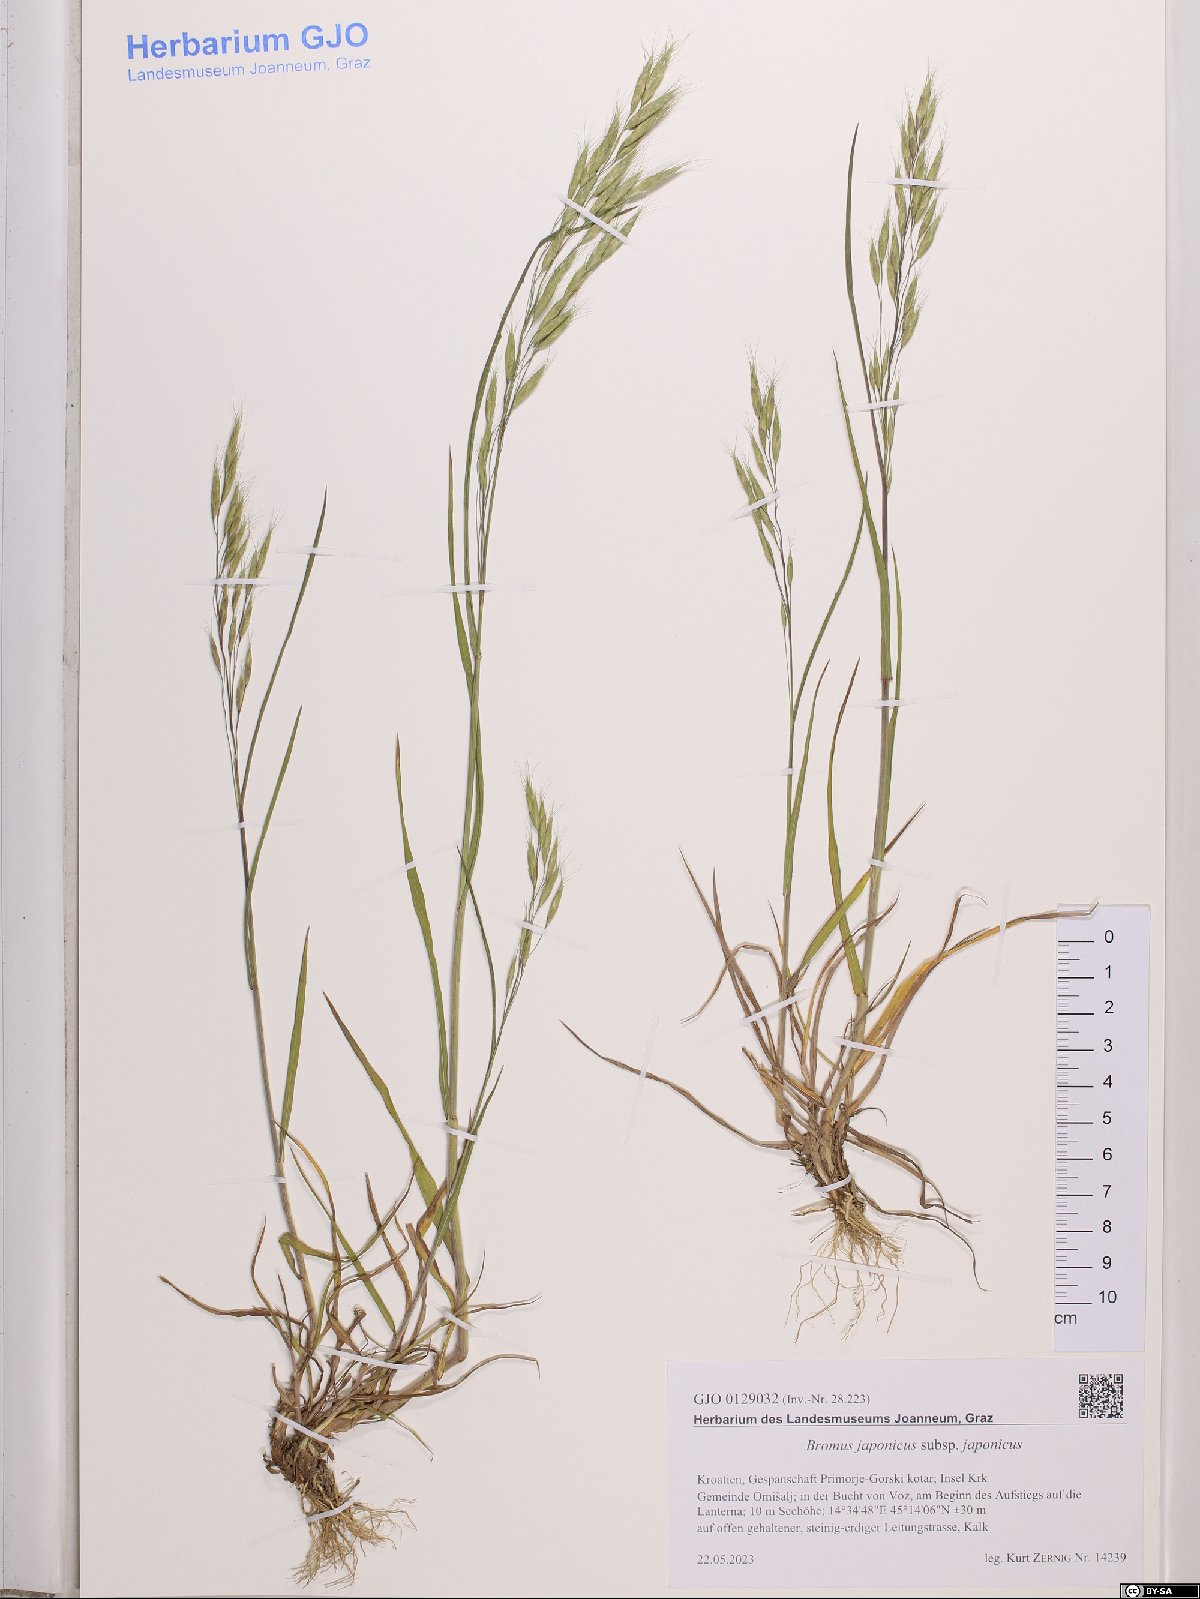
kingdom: Plantae
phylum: Tracheophyta
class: Liliopsida
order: Poales
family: Poaceae
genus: Bromus
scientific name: Bromus japonicus
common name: Japanese brome
